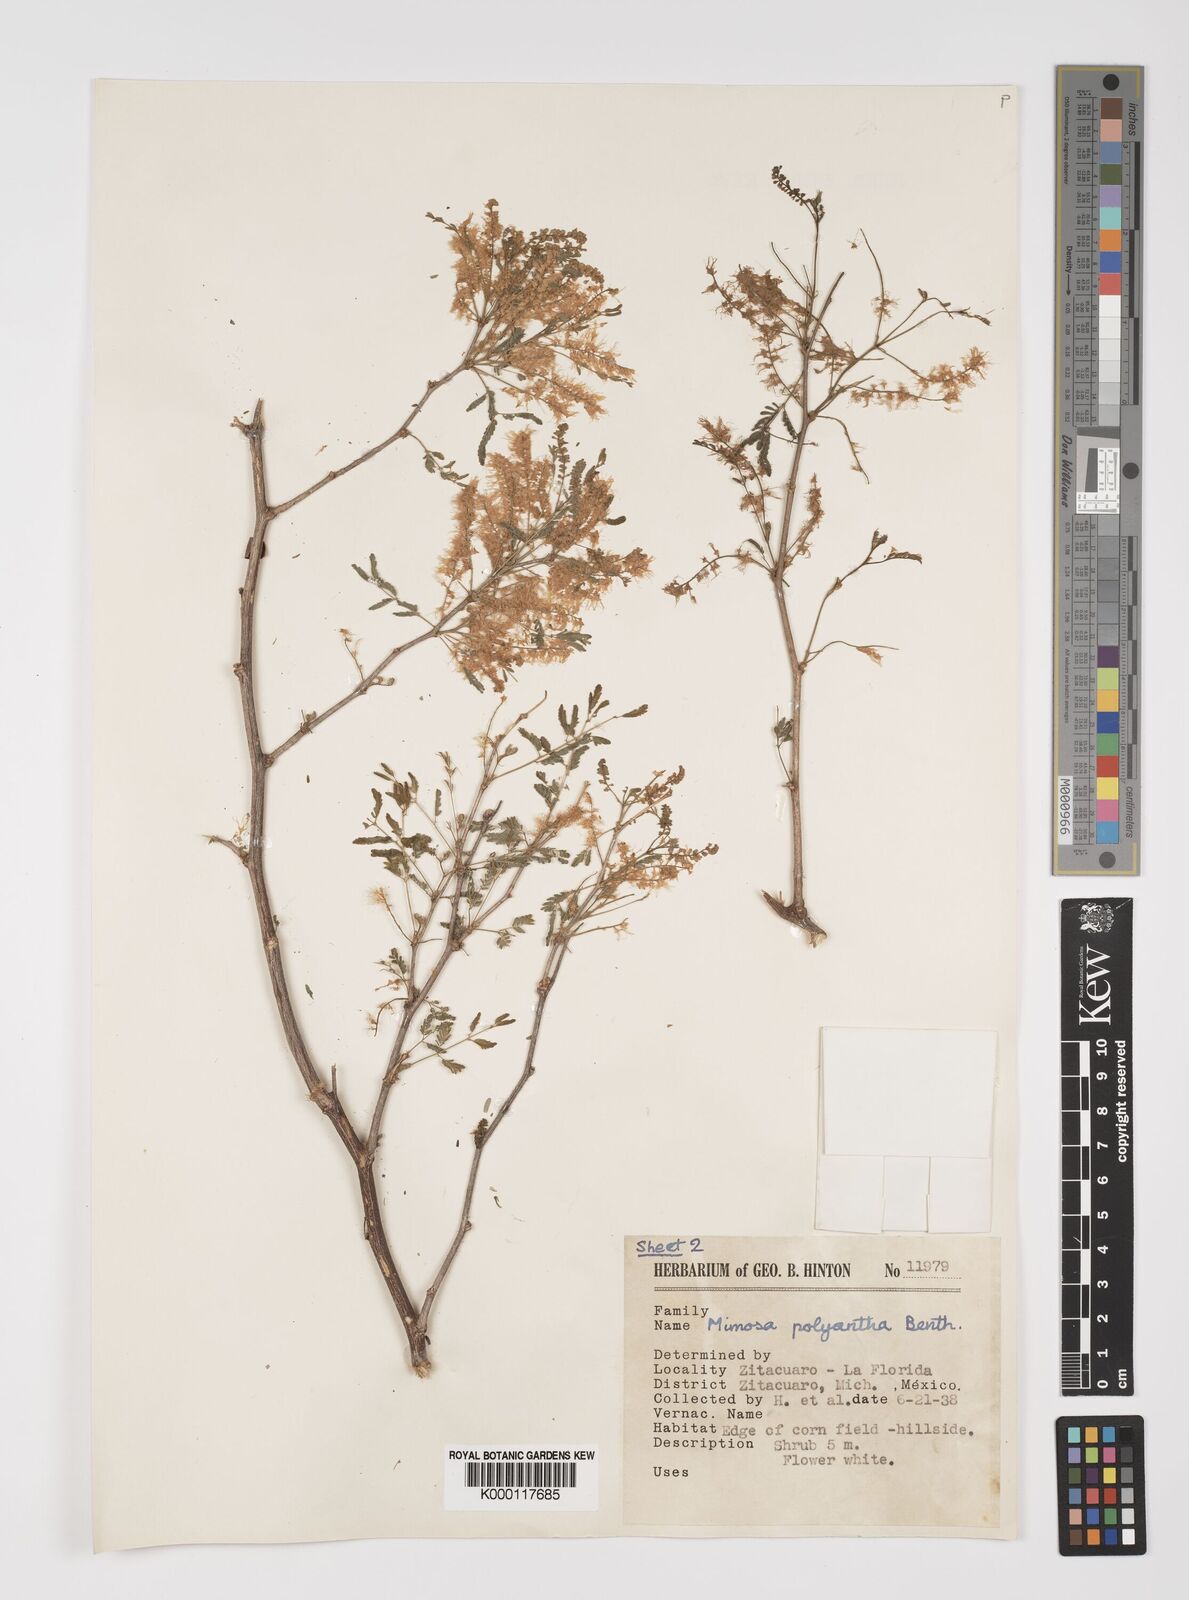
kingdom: Plantae
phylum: Tracheophyta
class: Magnoliopsida
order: Fabales
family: Fabaceae
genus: Mimosa
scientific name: Mimosa polyantha
